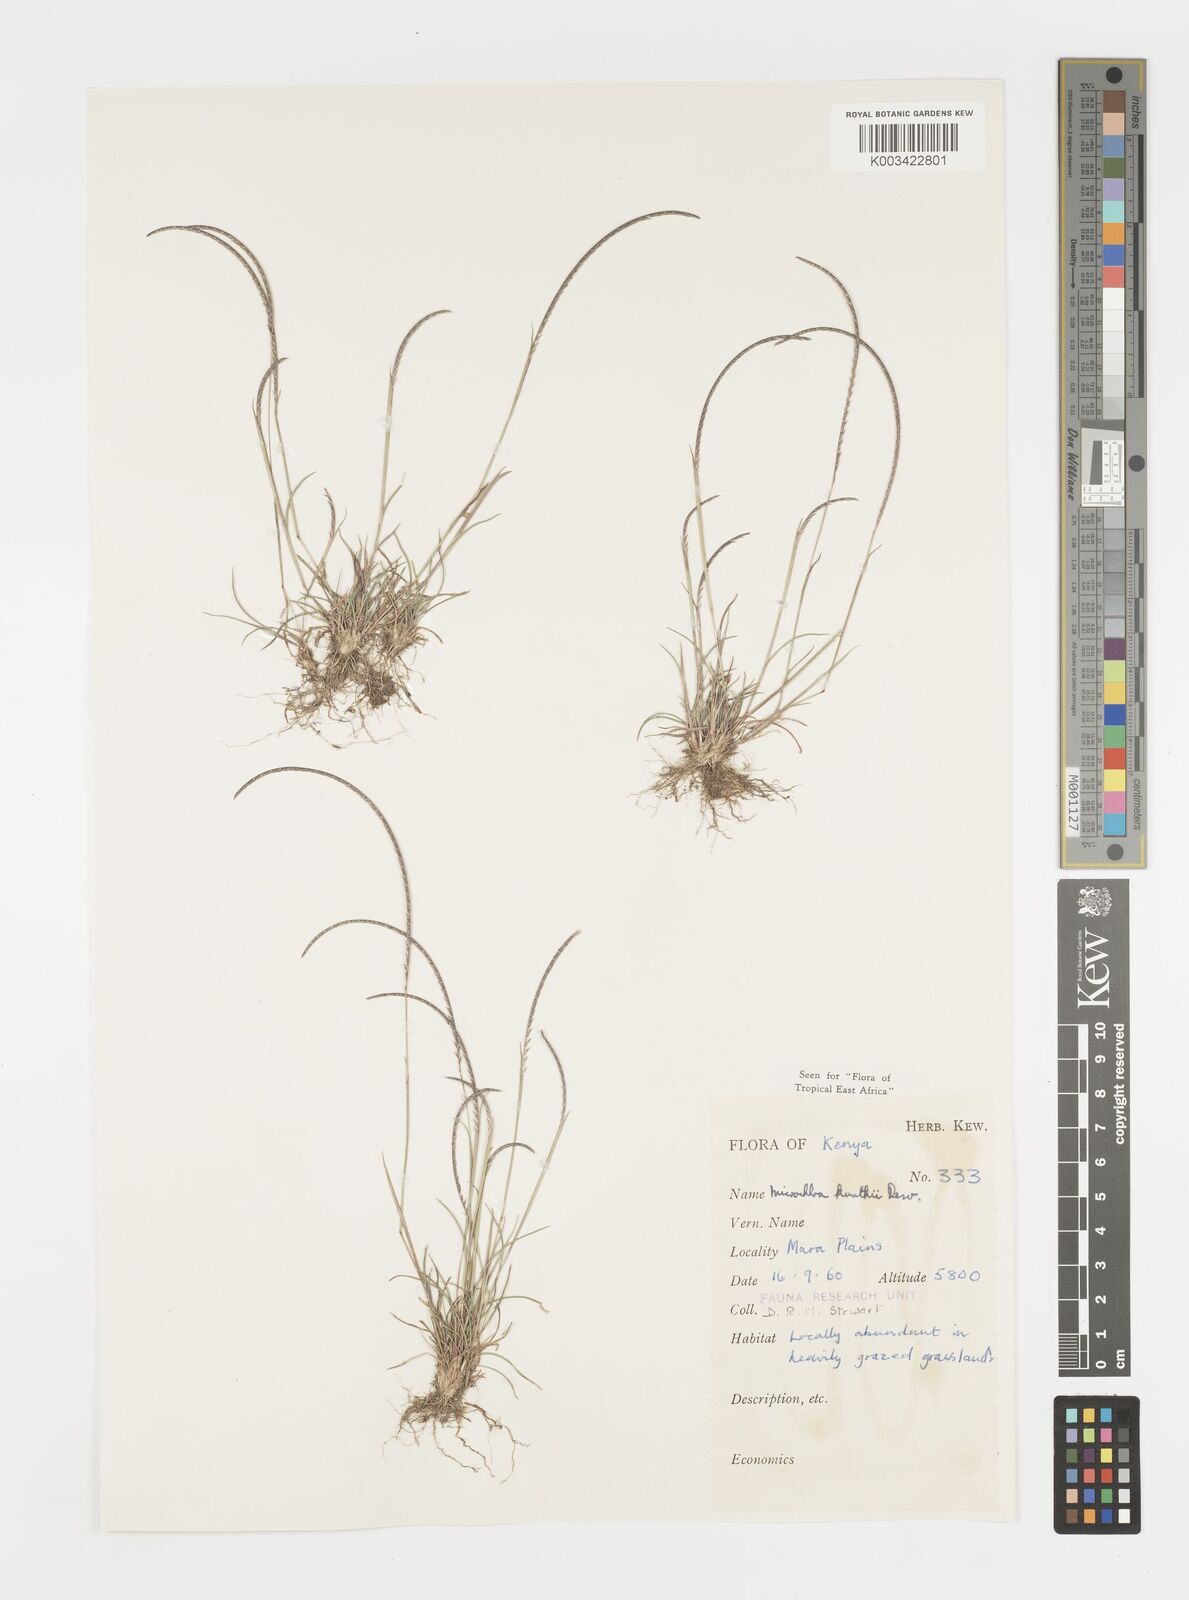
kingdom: Plantae
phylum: Tracheophyta
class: Liliopsida
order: Poales
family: Poaceae
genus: Microchloa
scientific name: Microchloa kunthii
